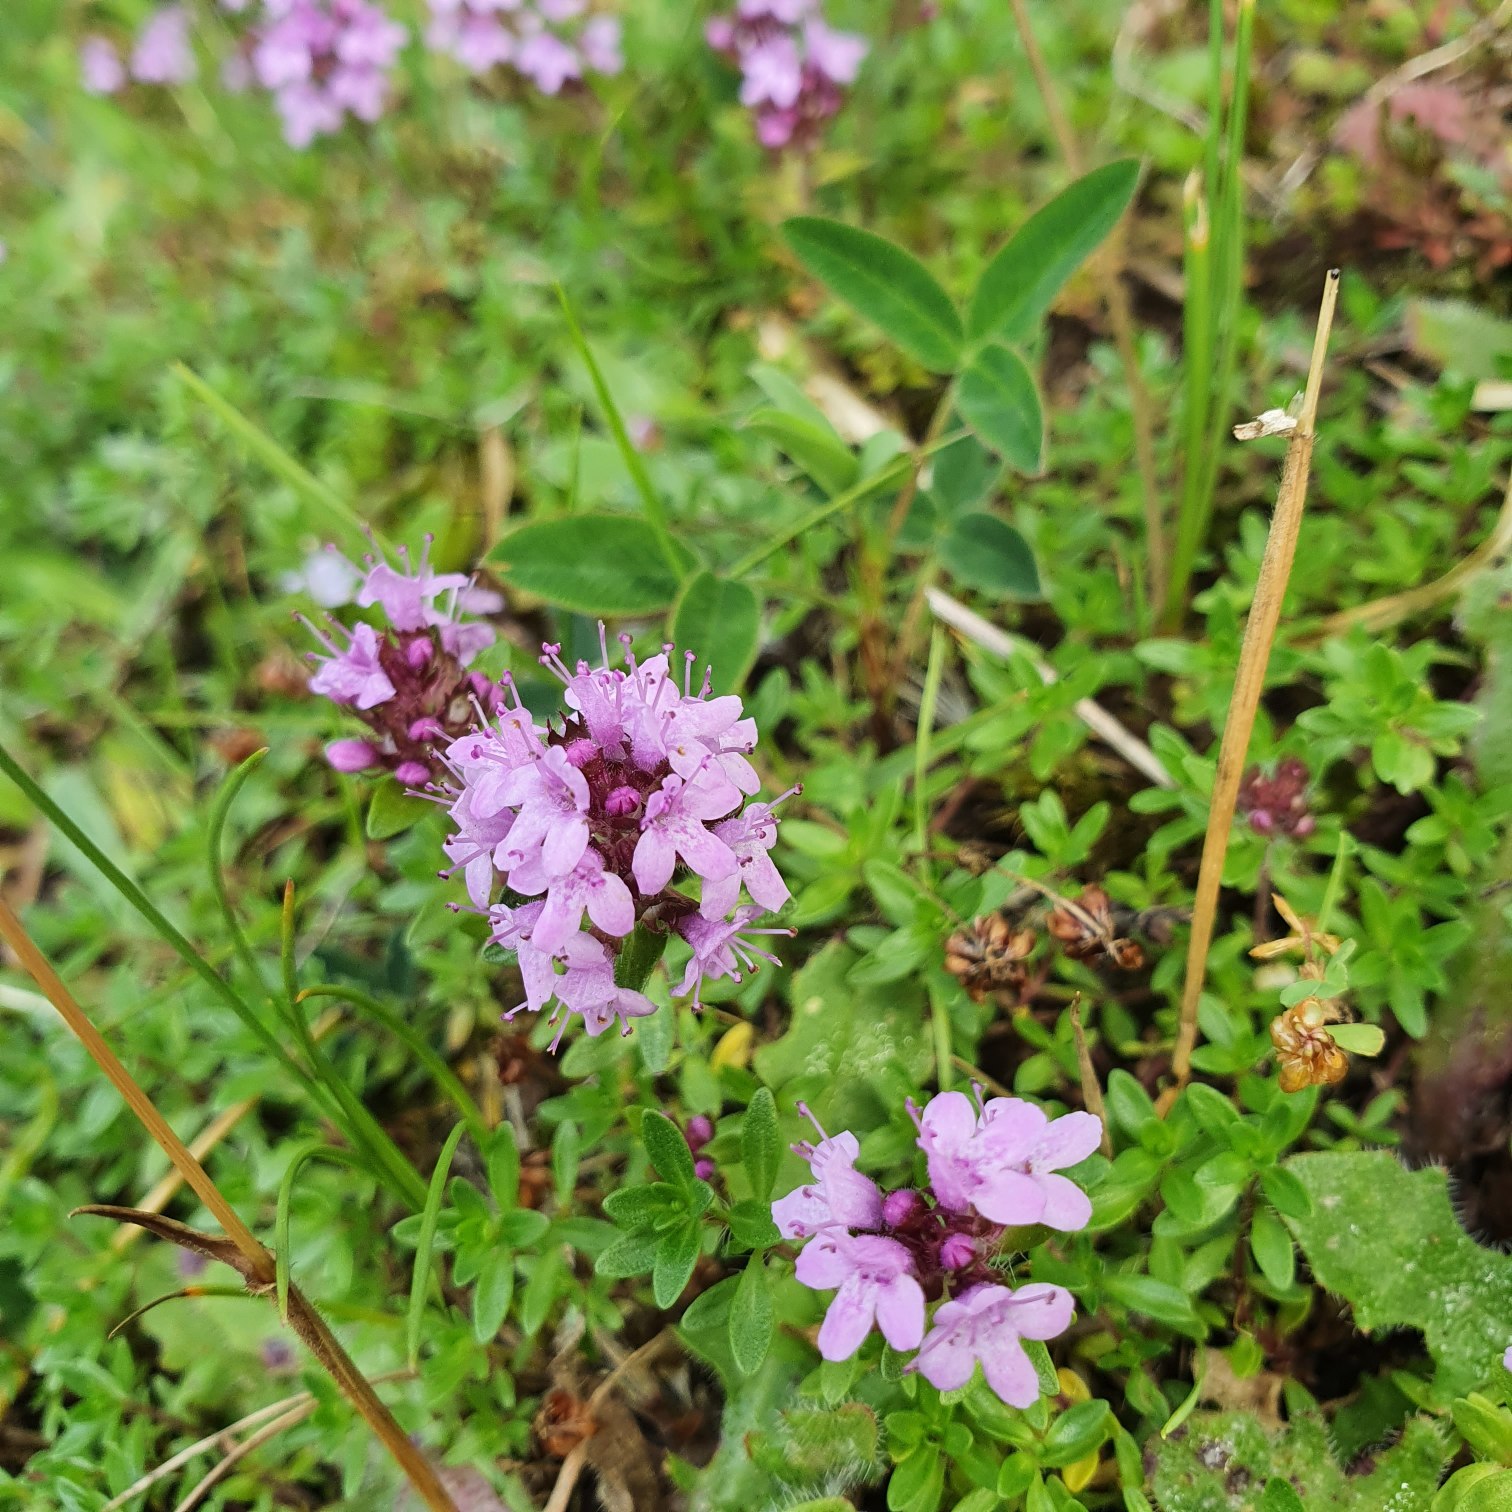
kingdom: Plantae
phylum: Tracheophyta
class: Magnoliopsida
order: Lamiales
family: Lamiaceae
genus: Thymus
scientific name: Thymus serpyllum
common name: Smalbladet timian
